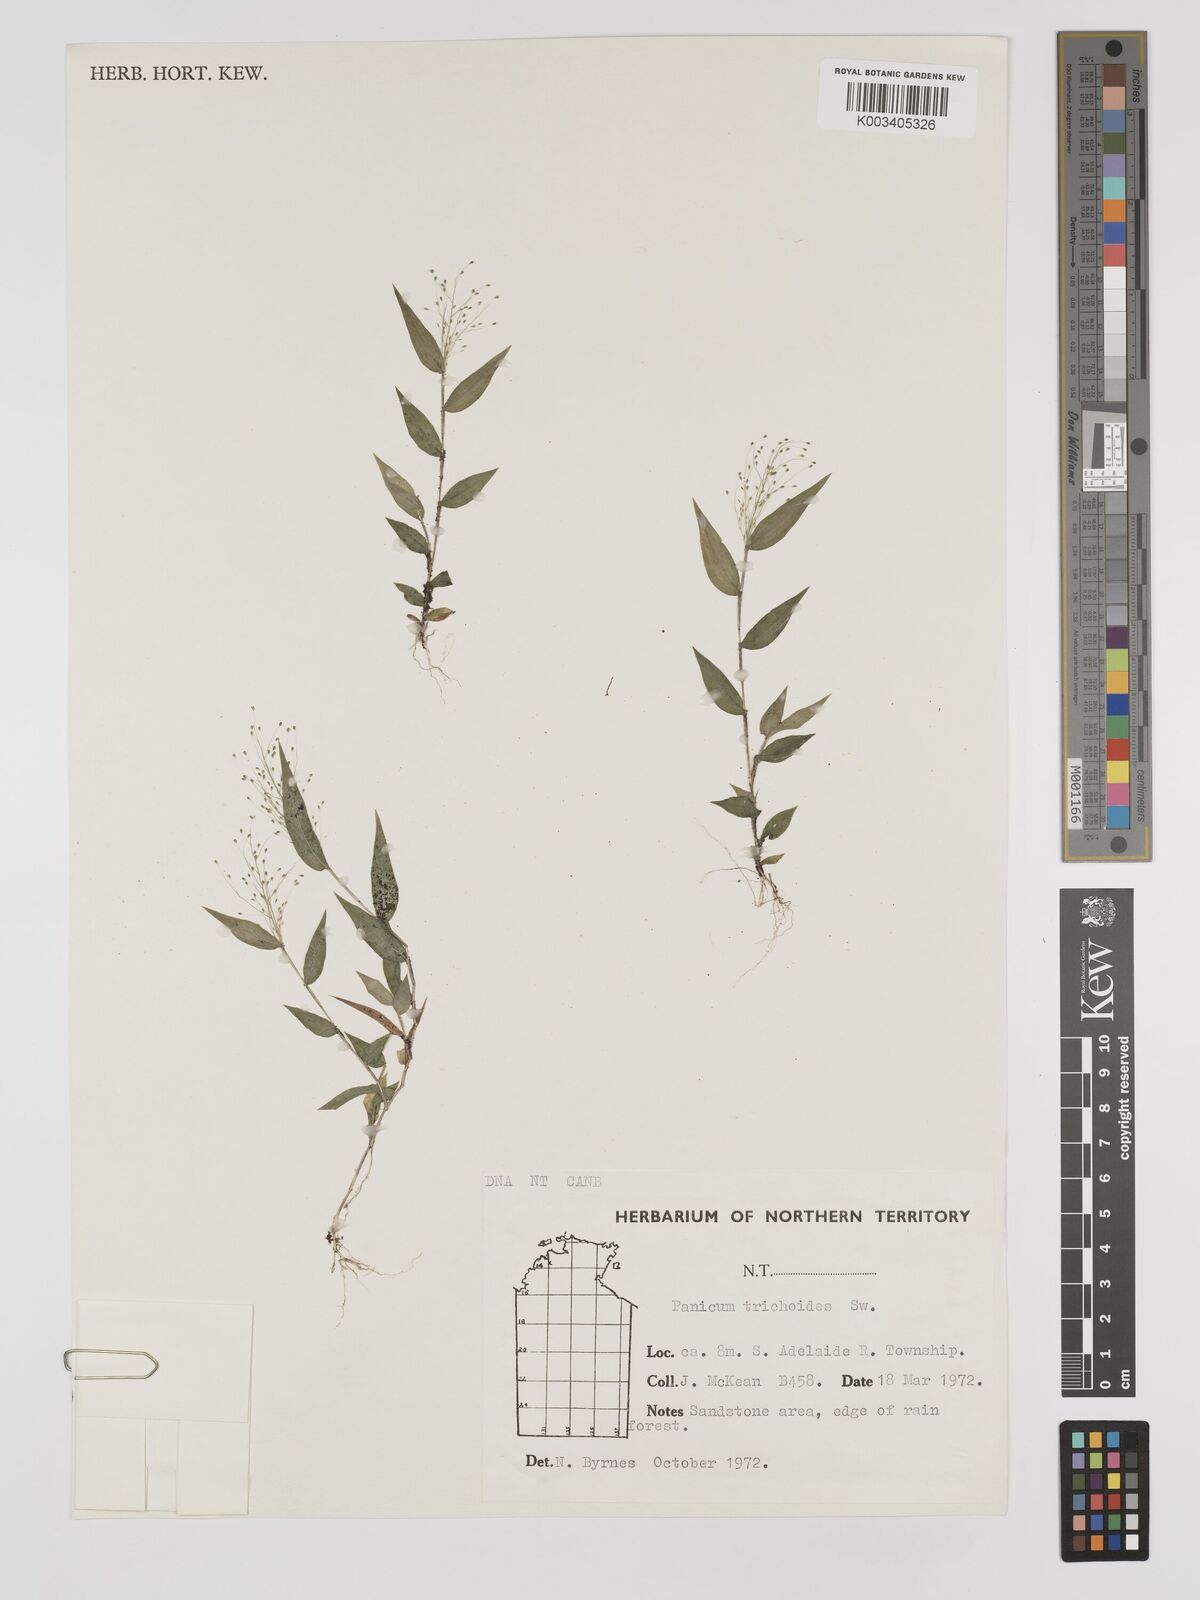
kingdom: Plantae
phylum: Tracheophyta
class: Liliopsida
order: Poales
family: Poaceae
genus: Panicum
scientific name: Panicum trichoides
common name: Tickle grass
